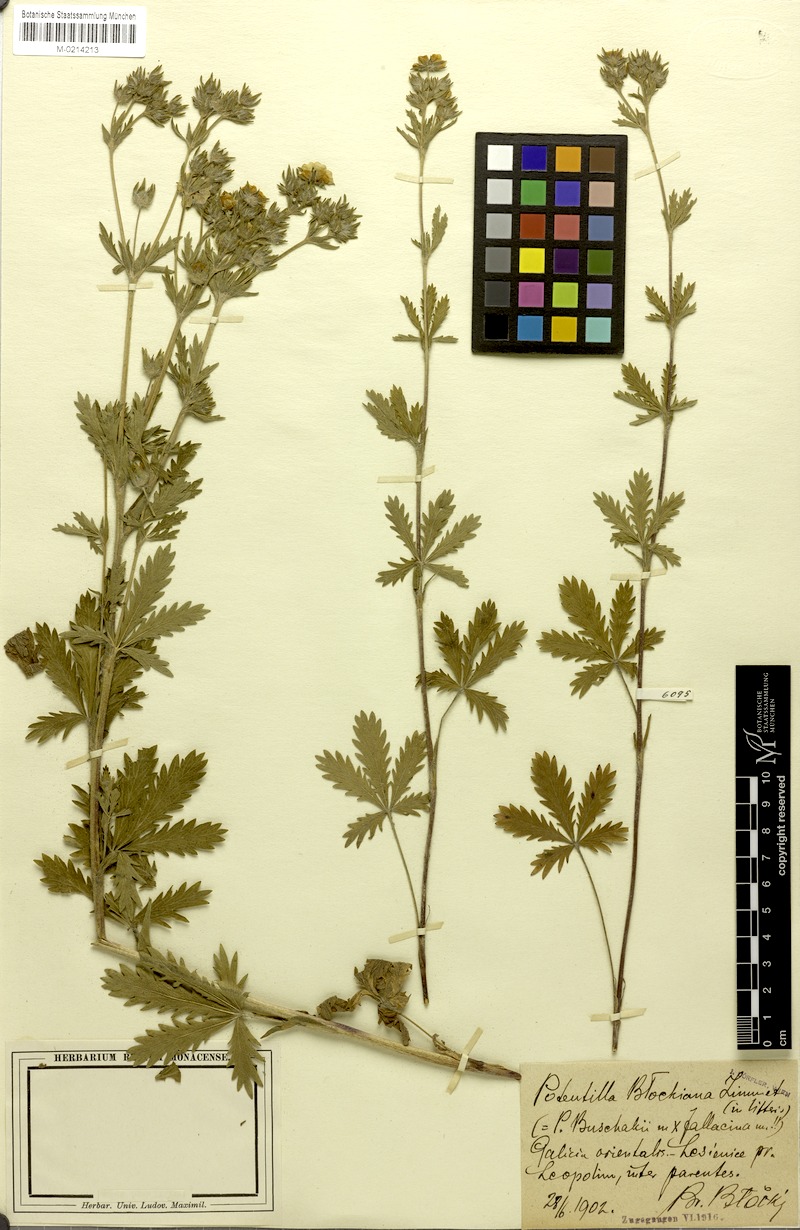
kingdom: Plantae
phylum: Tracheophyta
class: Magnoliopsida
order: Rosales
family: Rosaceae
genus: Potentilla
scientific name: Potentilla
